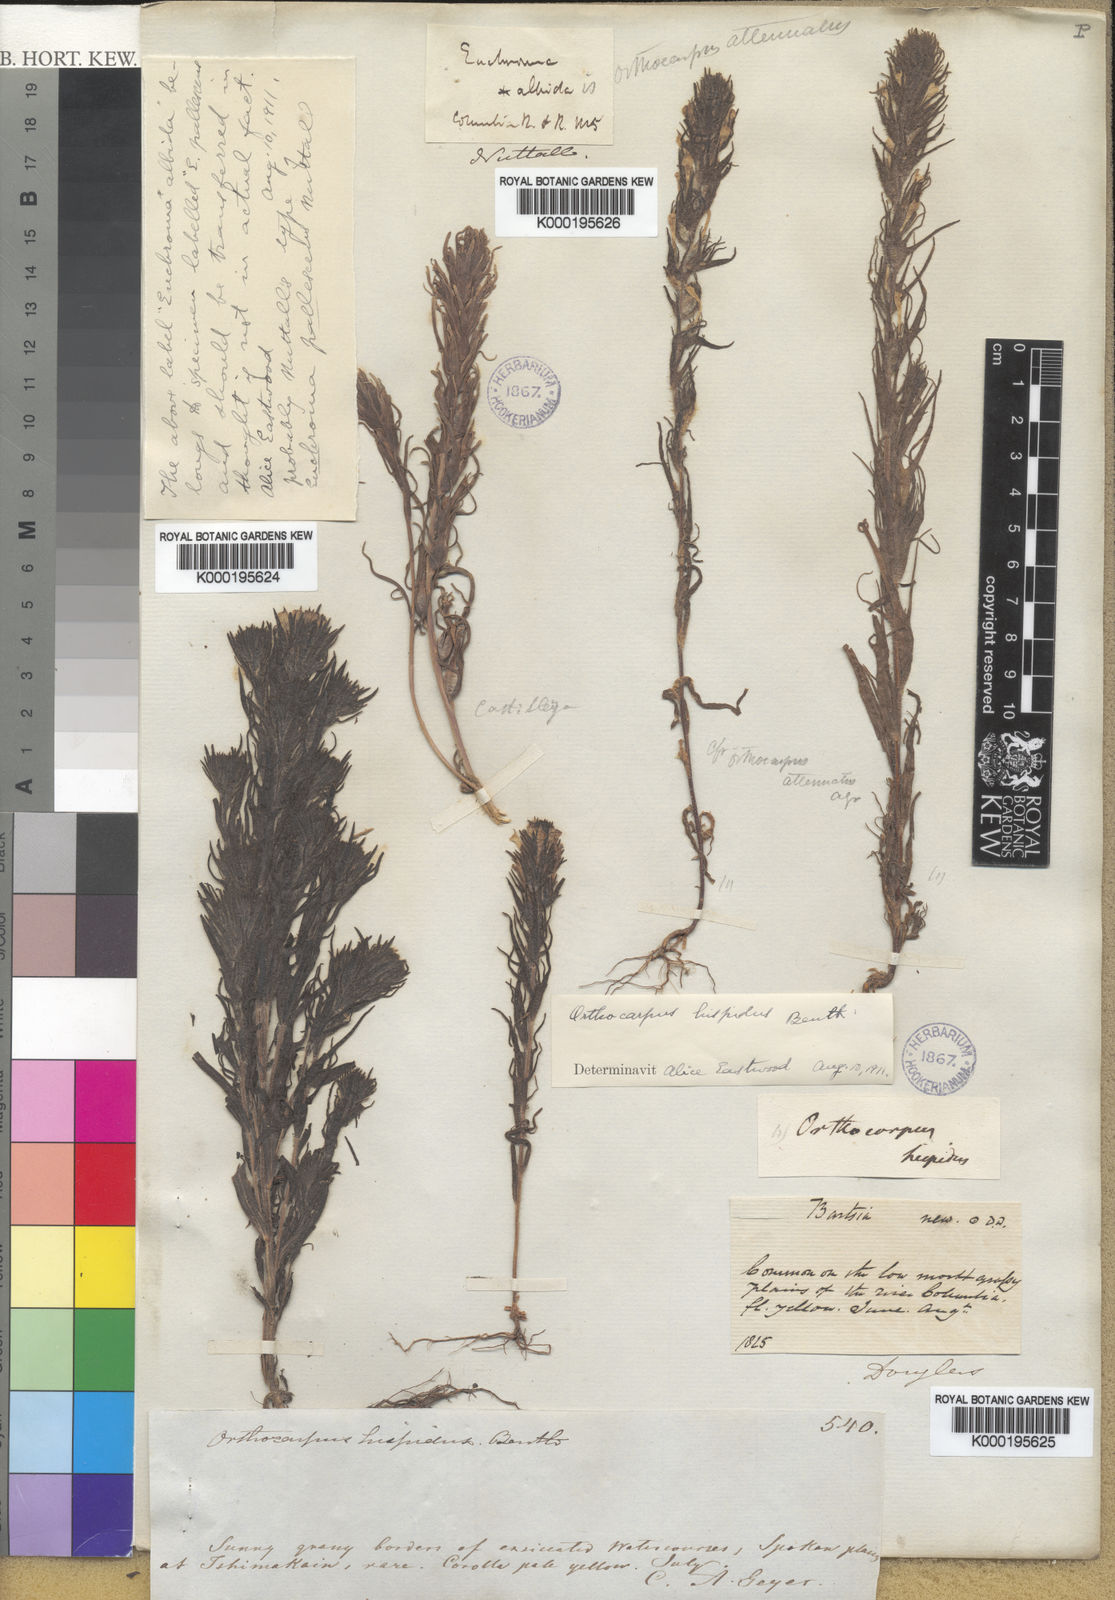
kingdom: Plantae
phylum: Tracheophyta
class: Magnoliopsida
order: Lamiales
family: Orobanchaceae
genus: Castilleja
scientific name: Castilleja attenuata
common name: Valley tassels
